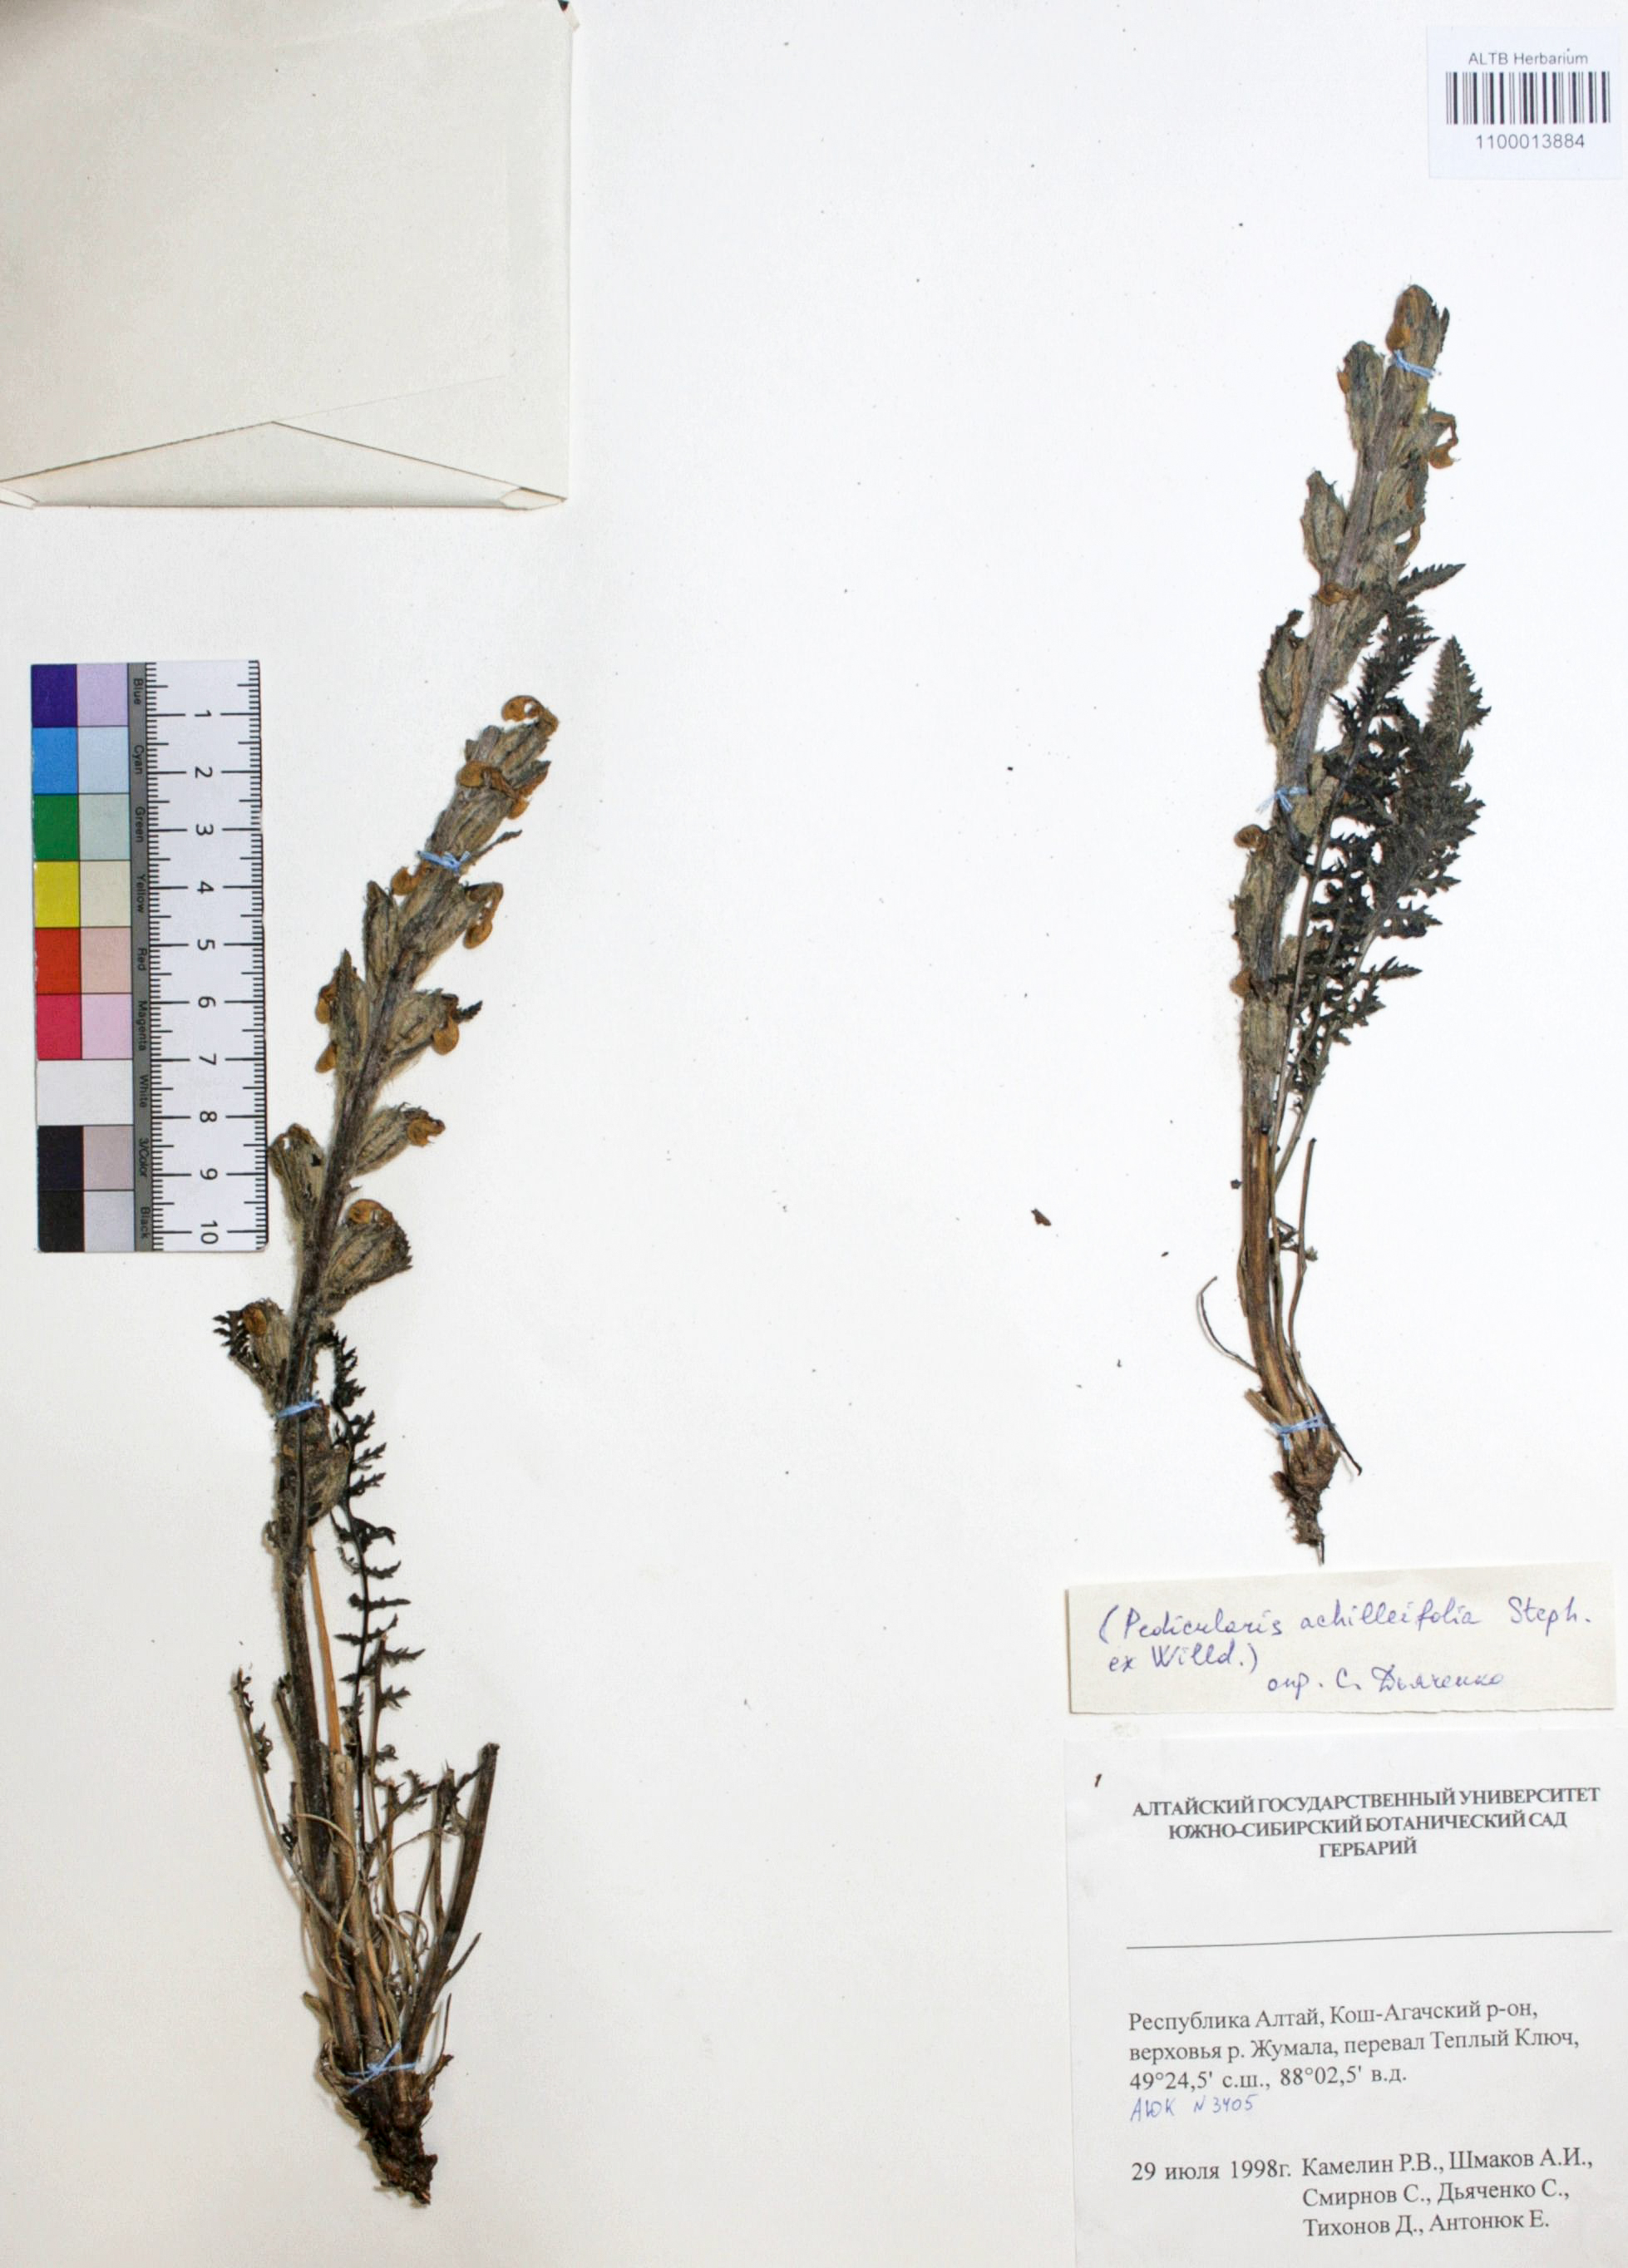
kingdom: Plantae
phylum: Tracheophyta
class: Magnoliopsida
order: Lamiales
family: Orobanchaceae
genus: Pedicularis
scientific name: Pedicularis achilleifolia
